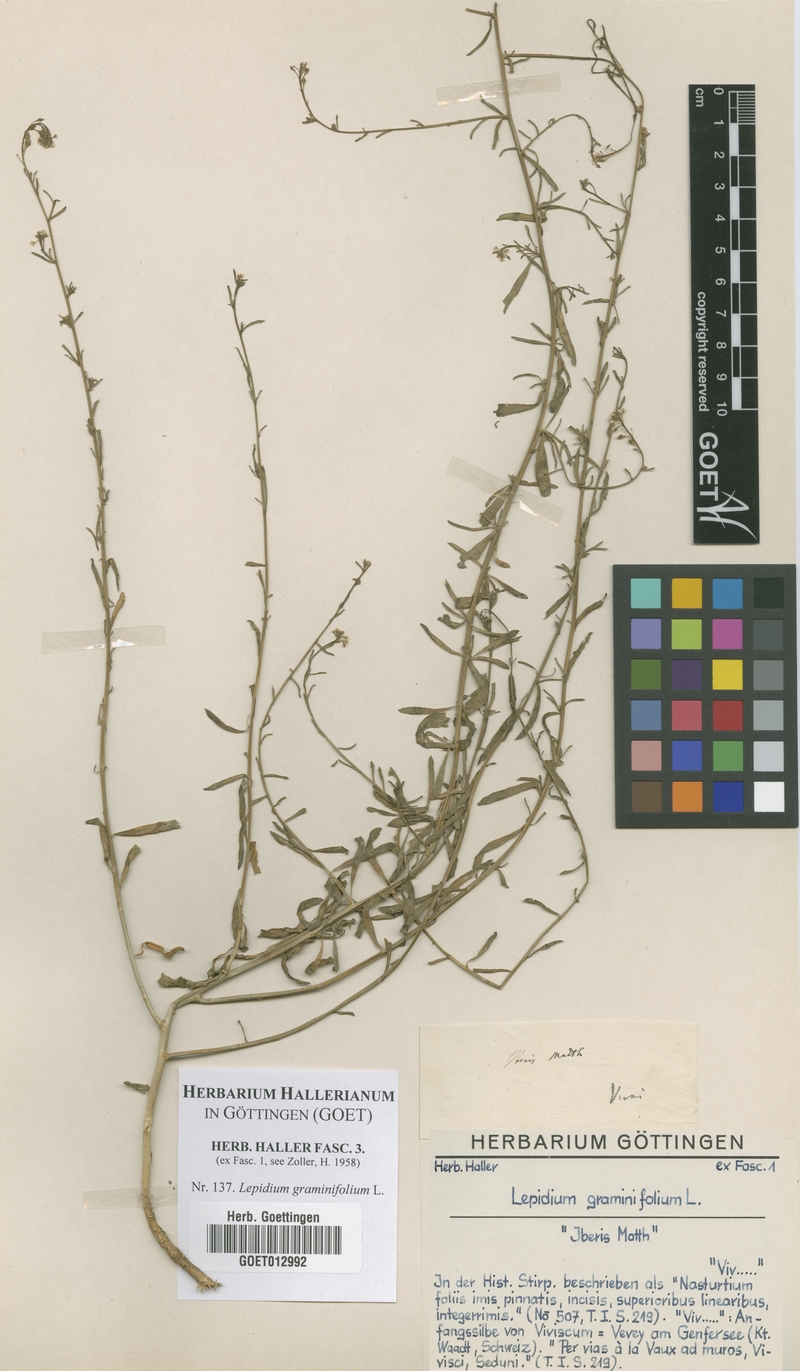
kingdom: Plantae
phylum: Tracheophyta
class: Magnoliopsida
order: Brassicales
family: Brassicaceae
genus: Lepidium
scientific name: Lepidium graminifolium
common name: Tall pepperwort
